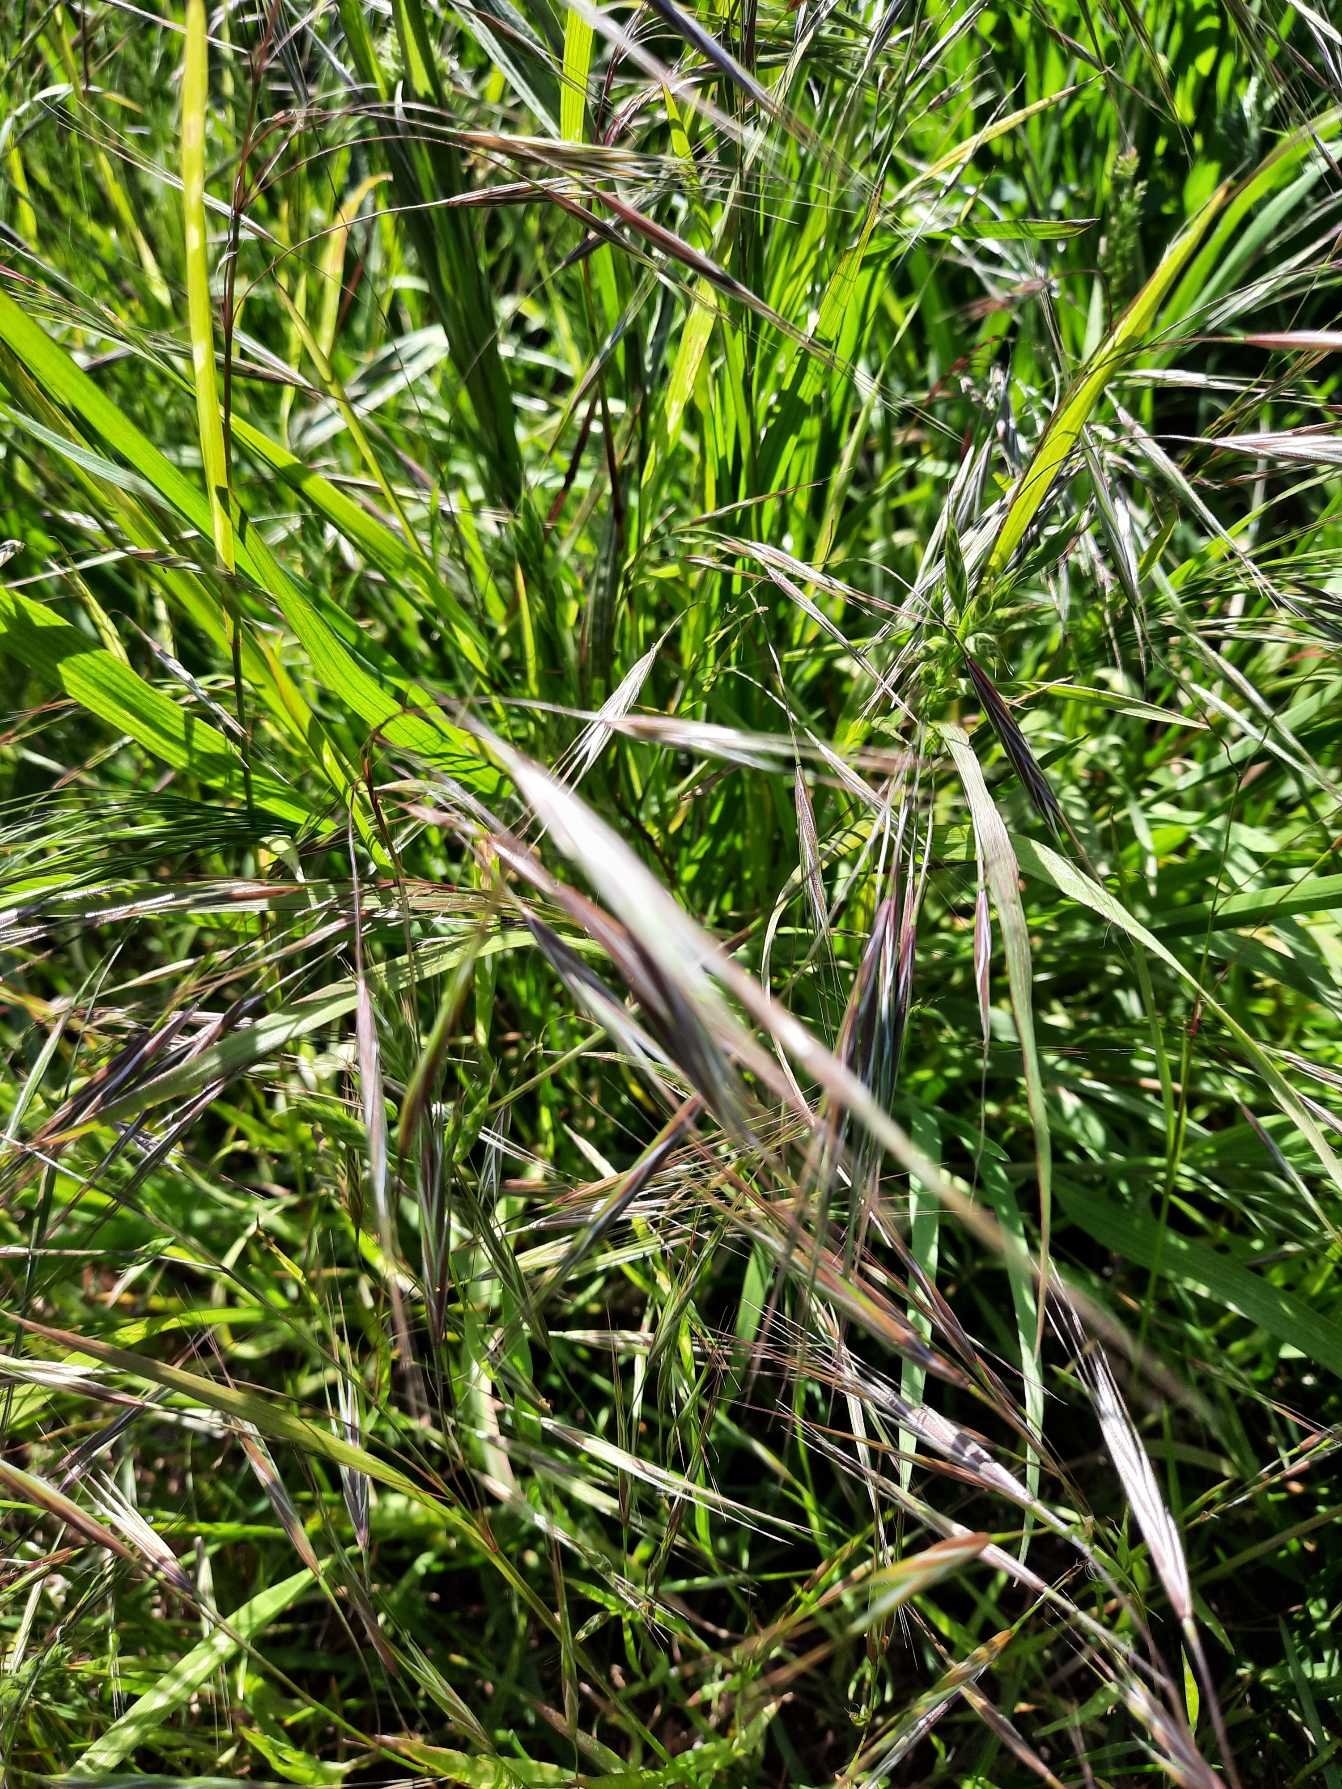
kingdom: Plantae
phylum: Tracheophyta
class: Liliopsida
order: Poales
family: Poaceae
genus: Bromus
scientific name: Bromus sterilis
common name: Gold hejre
